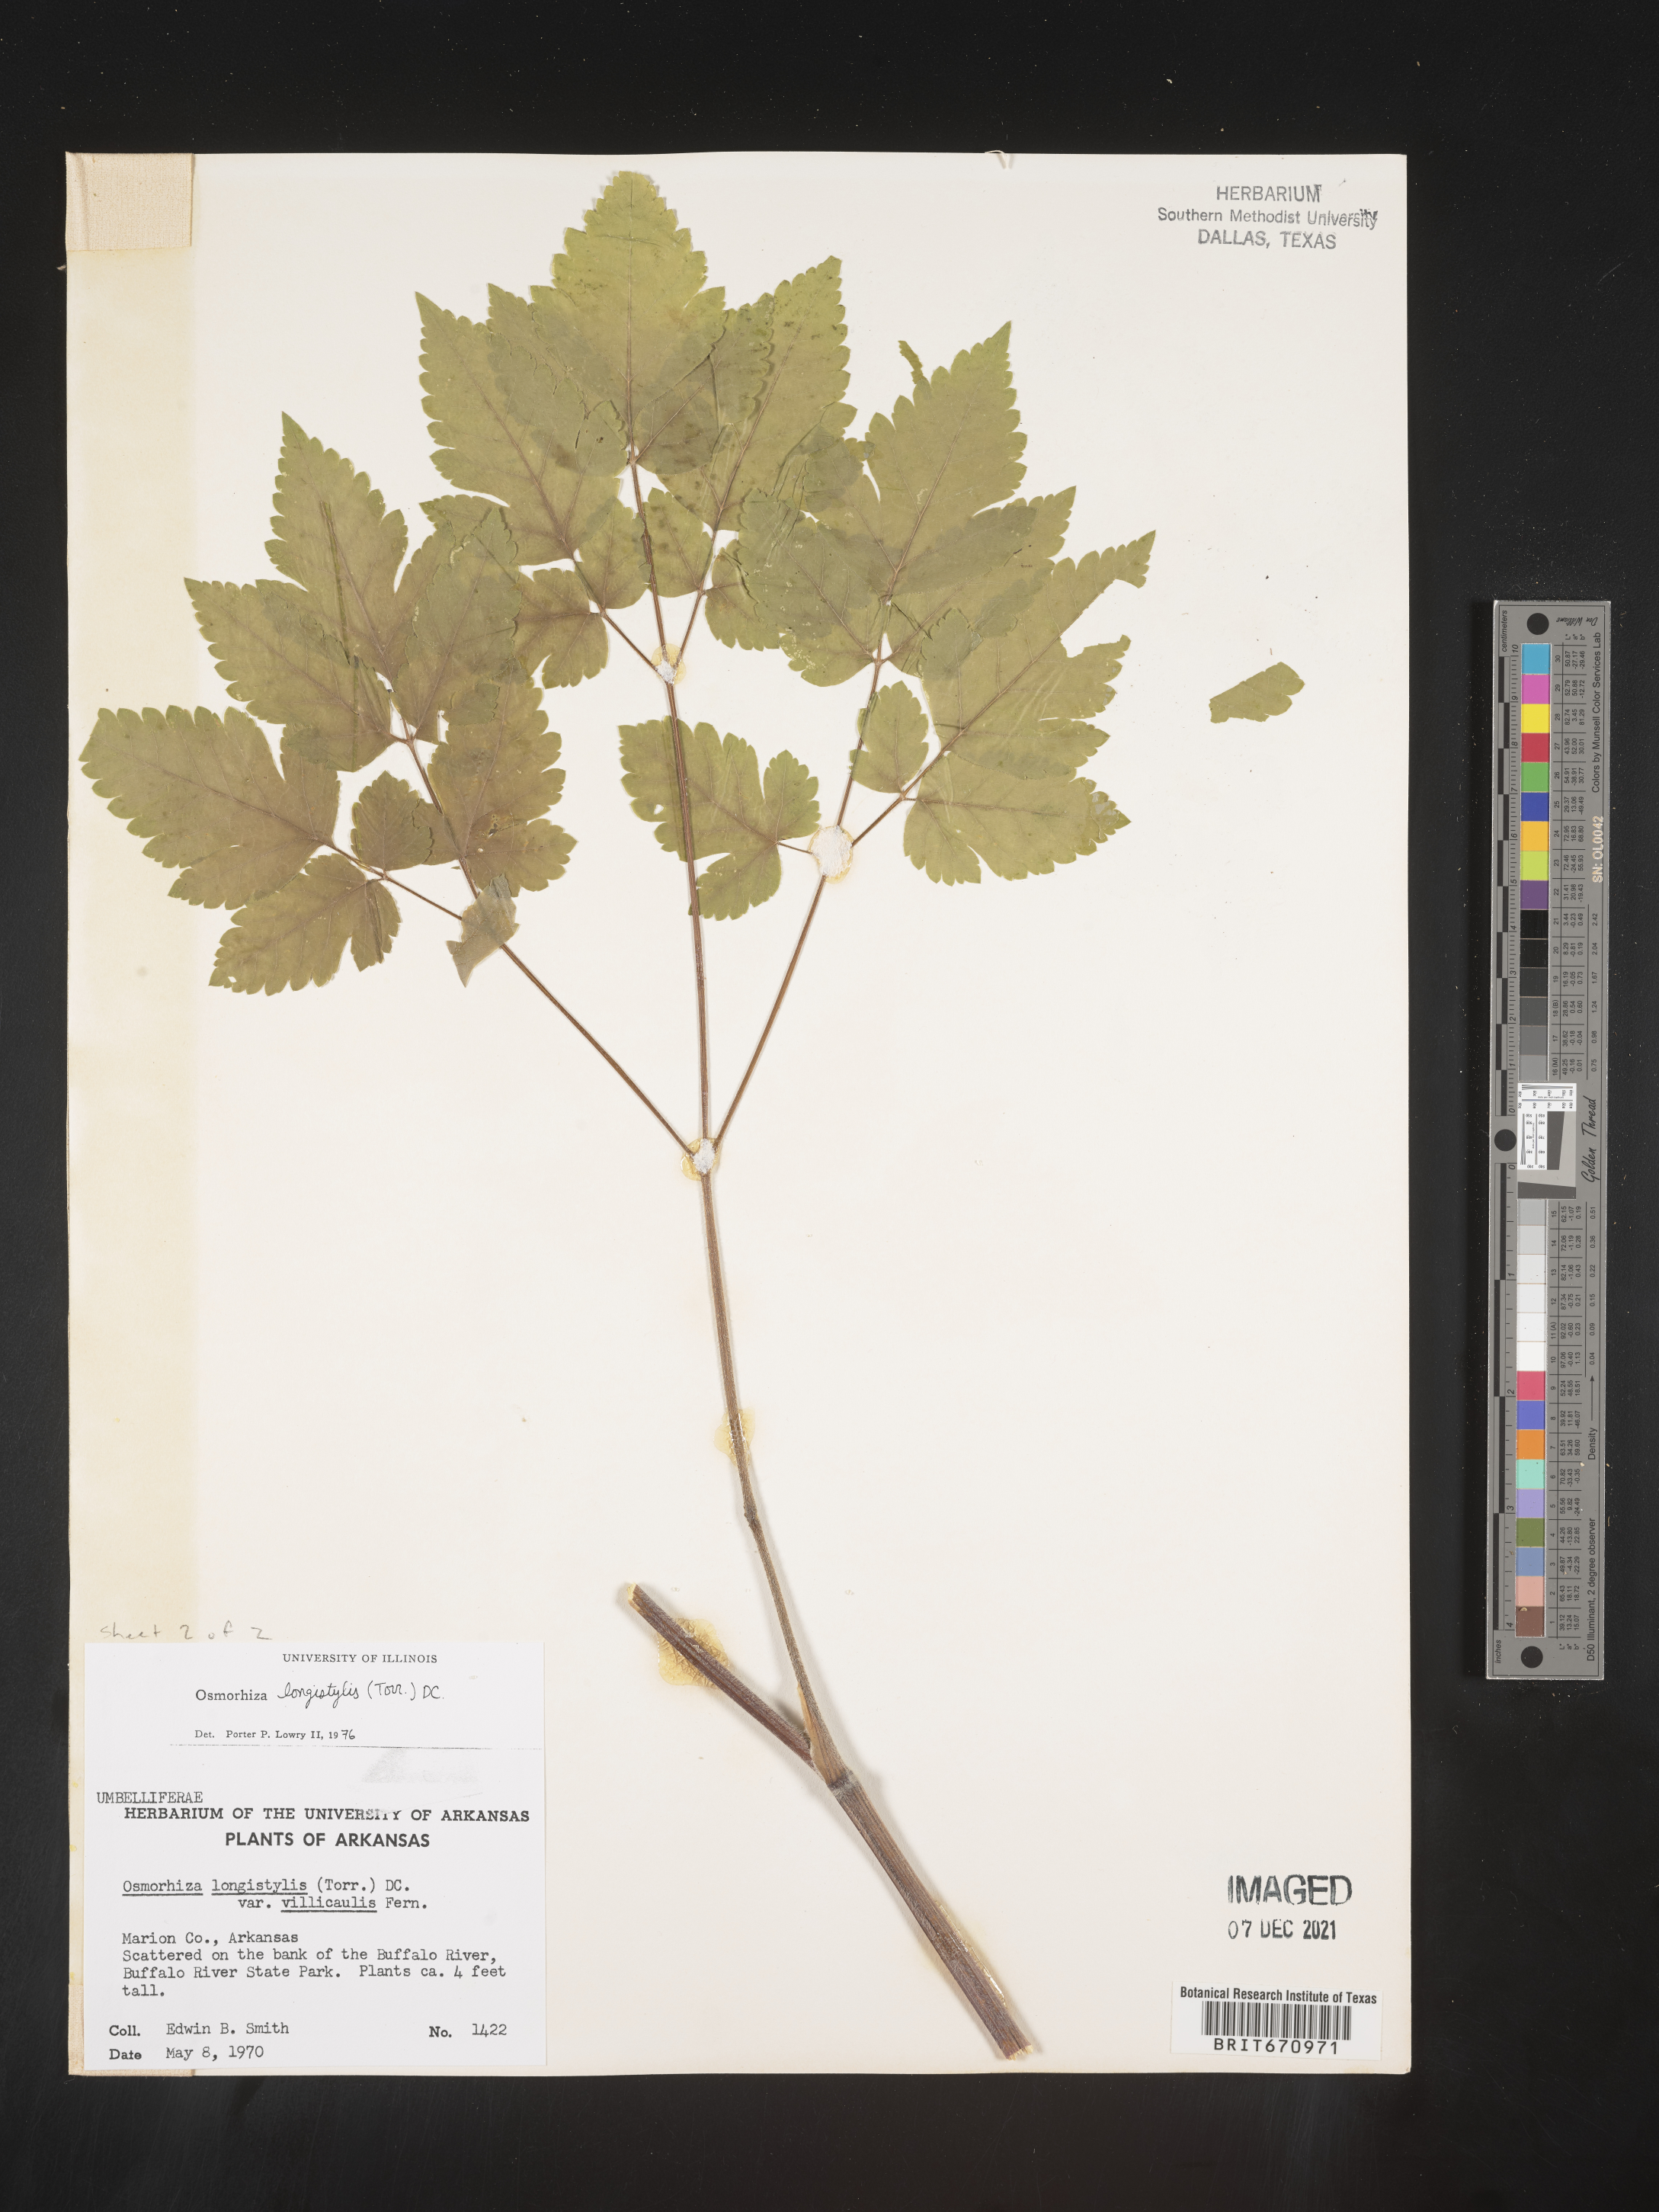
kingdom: Plantae
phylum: Tracheophyta
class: Magnoliopsida
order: Apiales
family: Apiaceae
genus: Osmorhiza
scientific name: Osmorhiza longistylis
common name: Smooth sweet cicely
